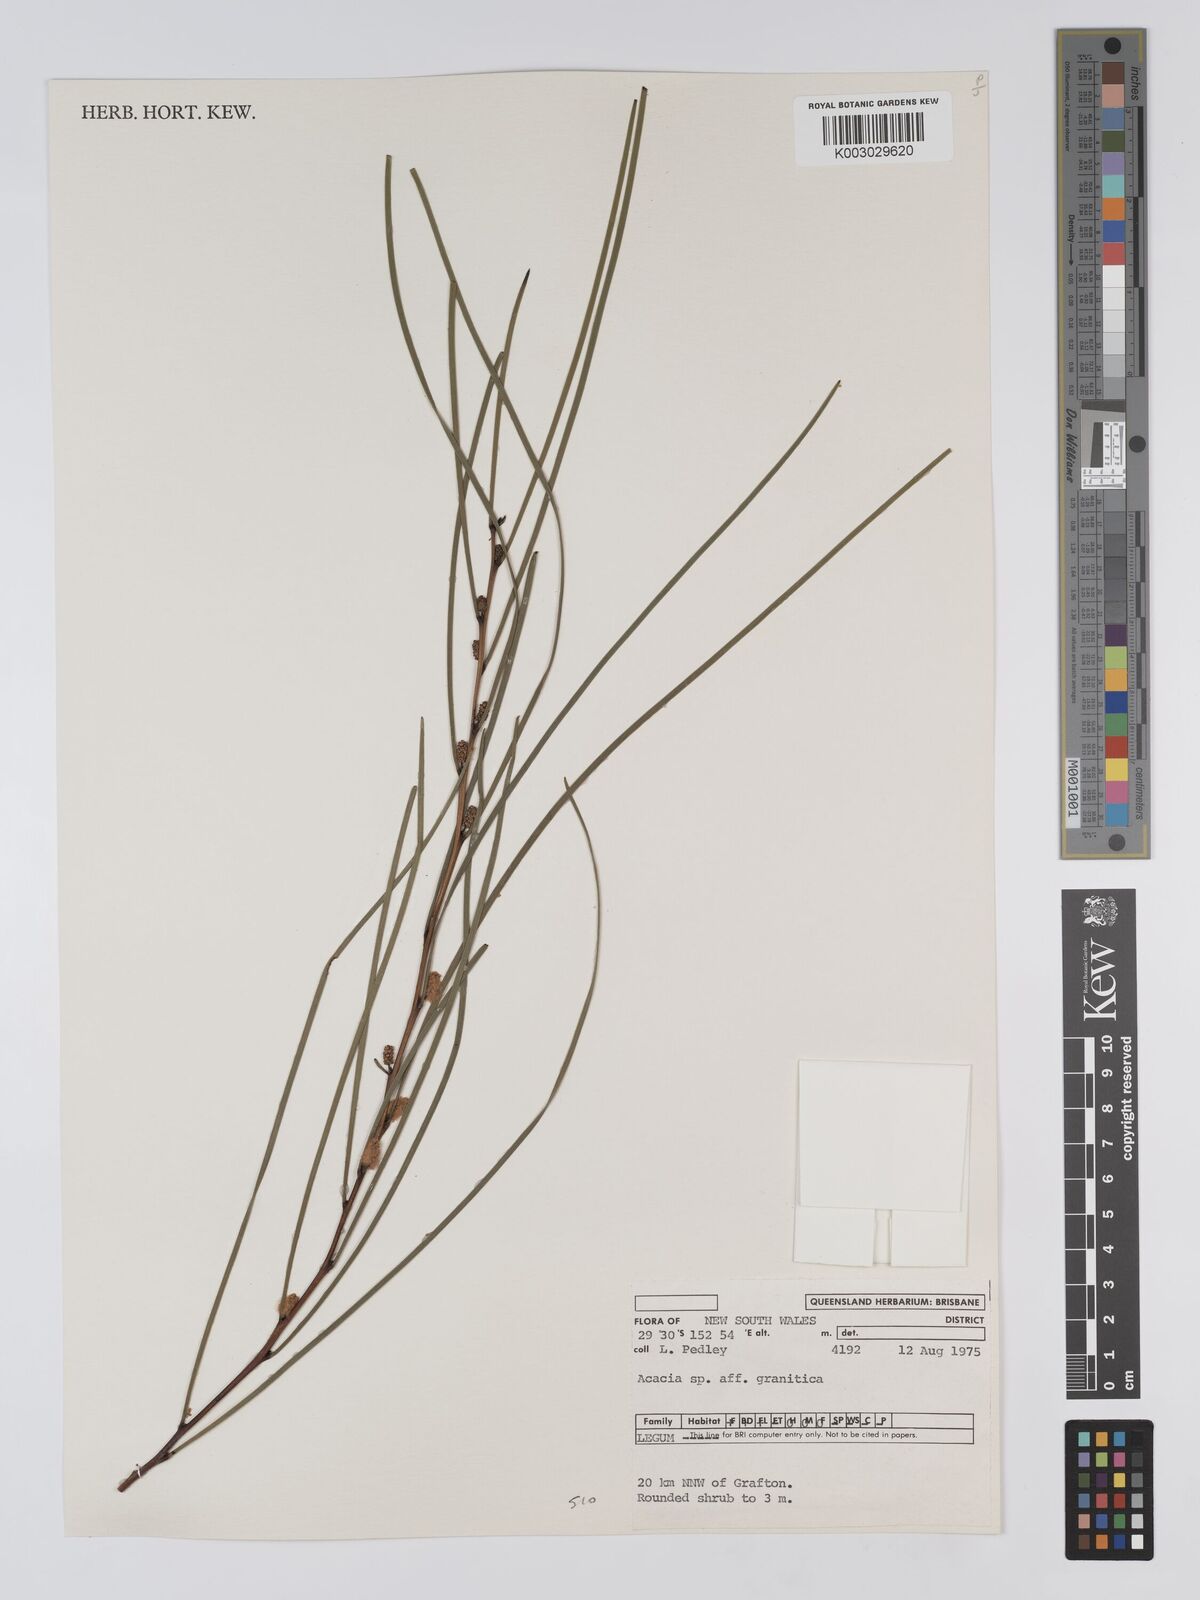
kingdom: Plantae
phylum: Tracheophyta
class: Magnoliopsida
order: Fabales
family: Fabaceae
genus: Acacia
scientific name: Acacia granitica
